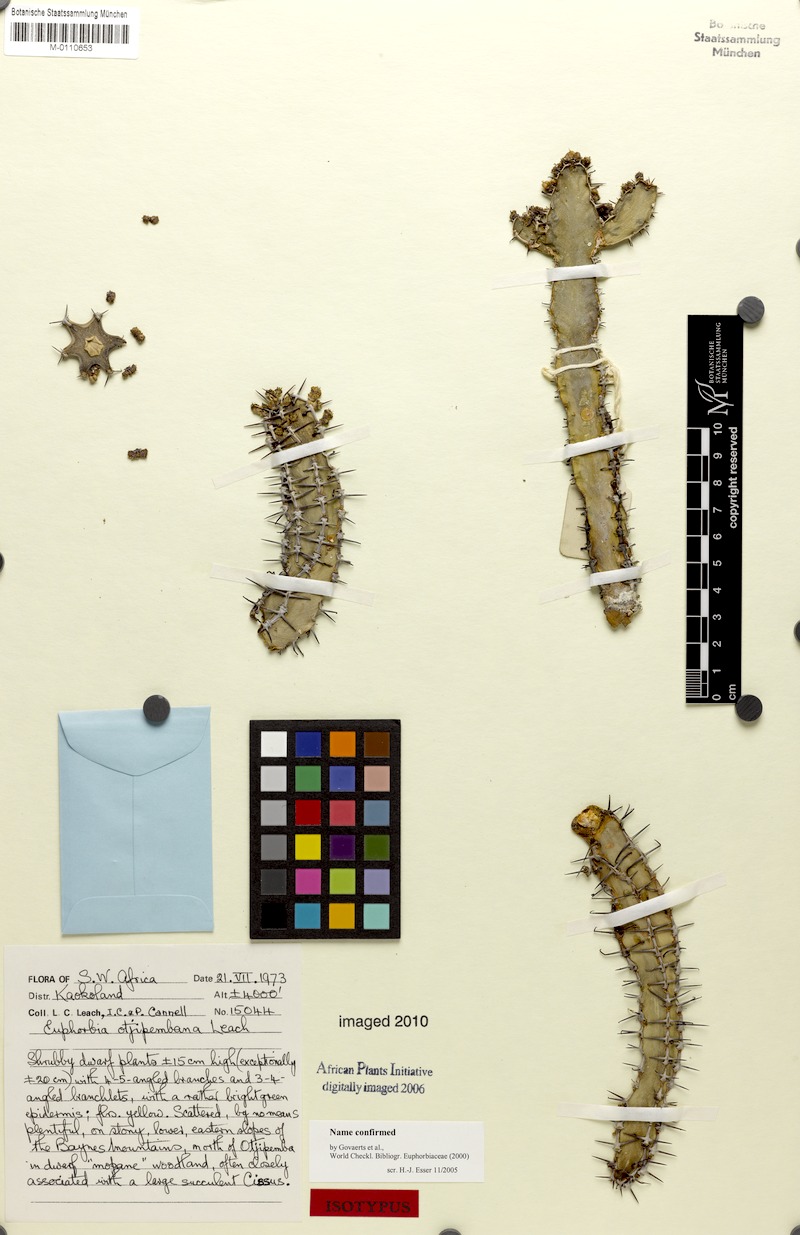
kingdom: Plantae
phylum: Tracheophyta
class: Magnoliopsida
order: Malpighiales
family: Euphorbiaceae
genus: Euphorbia
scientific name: Euphorbia otjipembana
